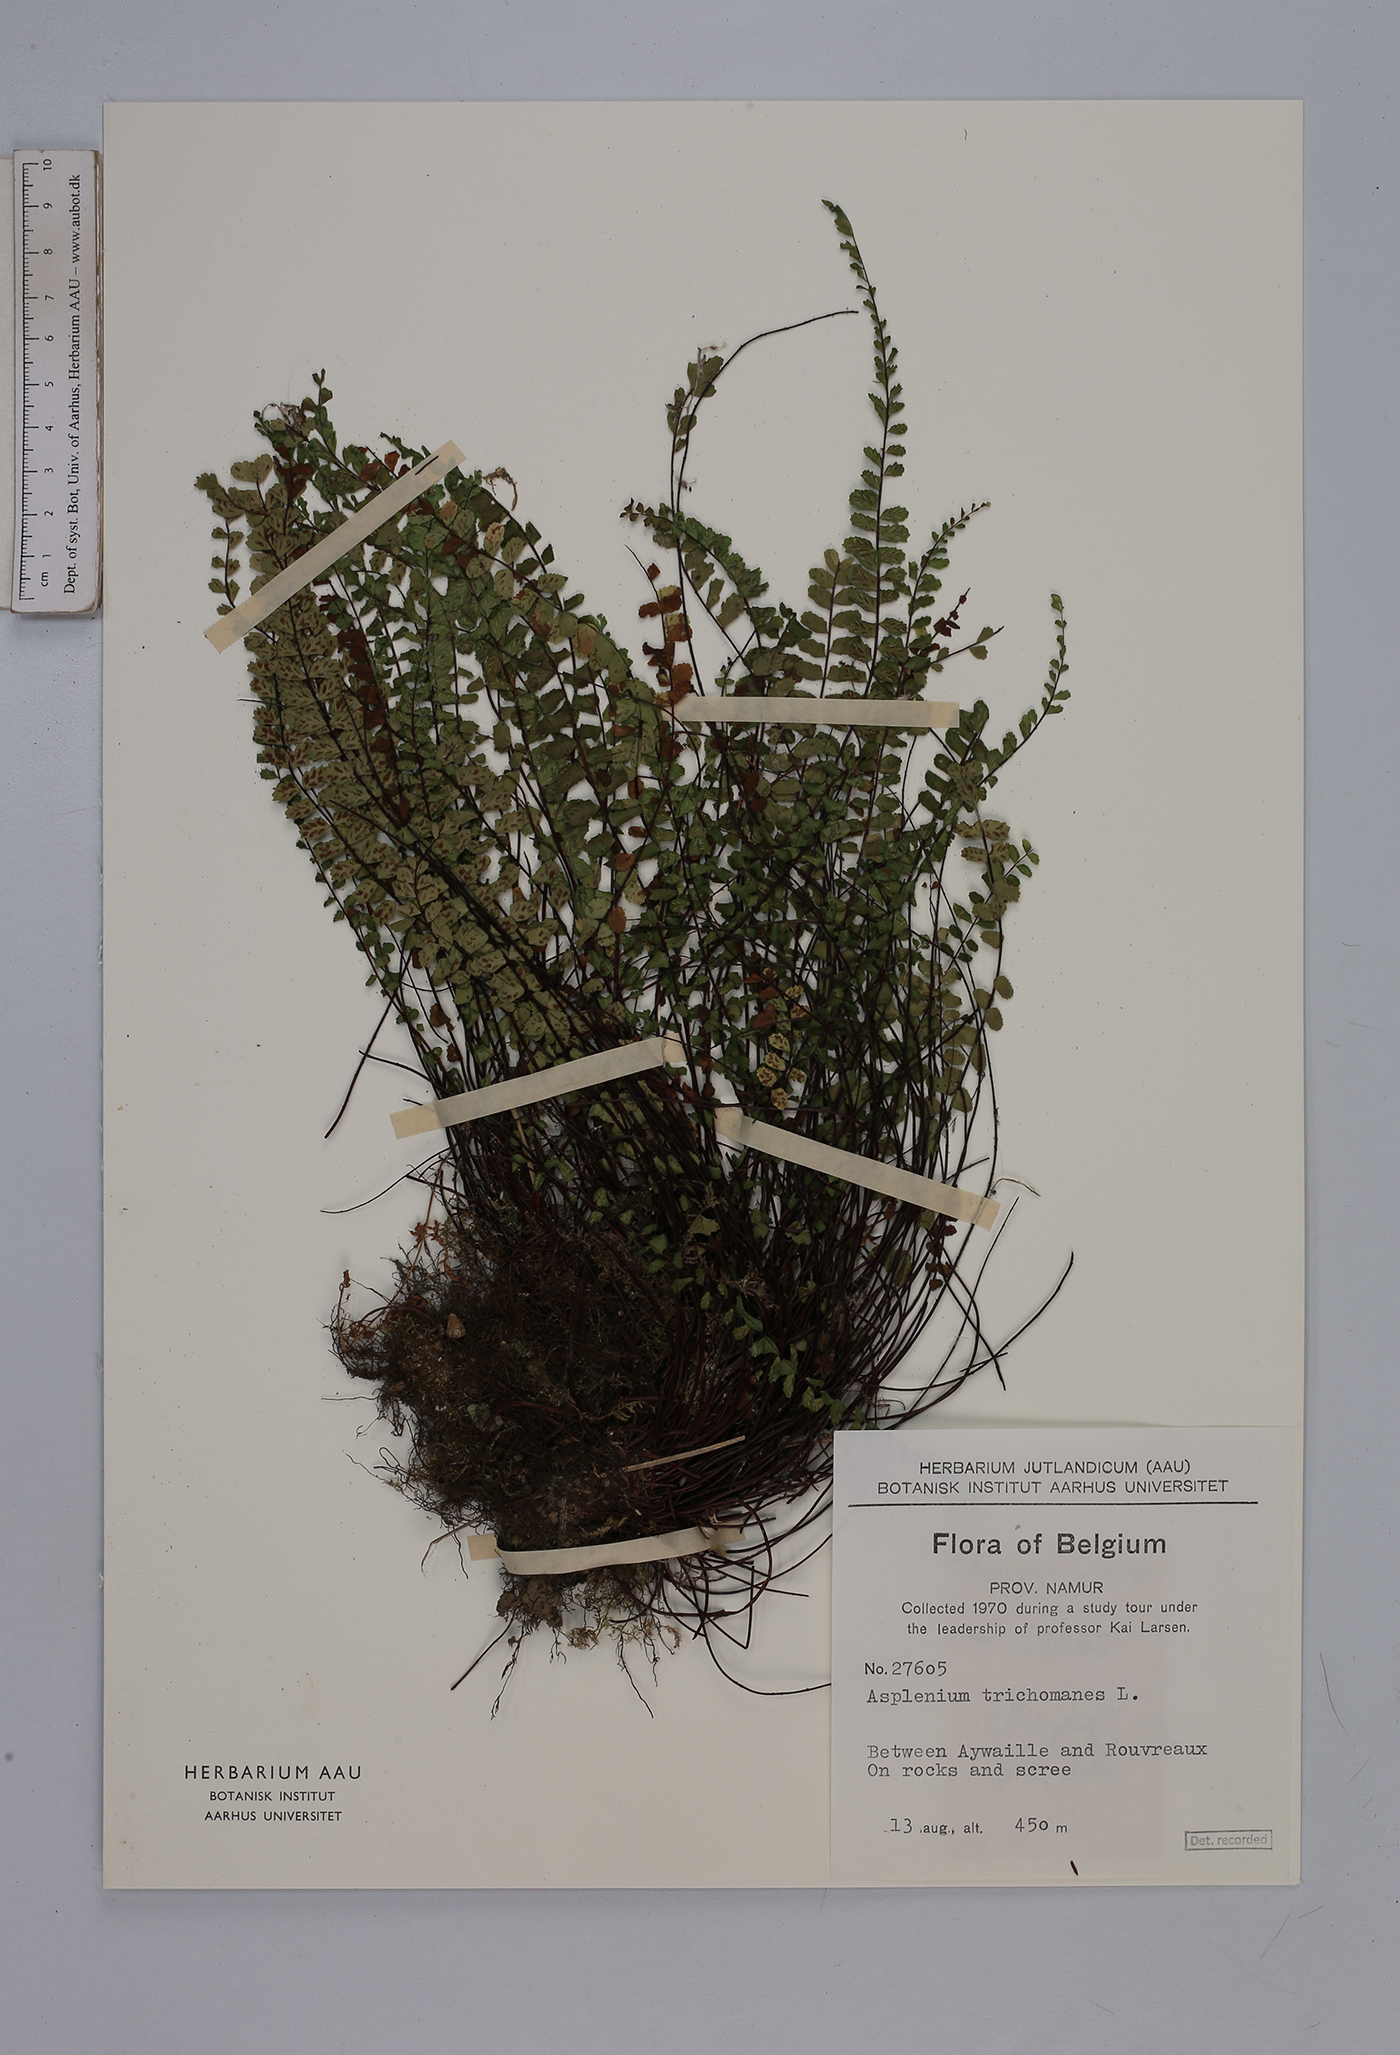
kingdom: Plantae
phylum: Tracheophyta
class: Polypodiopsida
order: Polypodiales
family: Aspleniaceae
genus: Asplenium
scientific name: Asplenium trichomanes
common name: Maidenhair spleenwort
